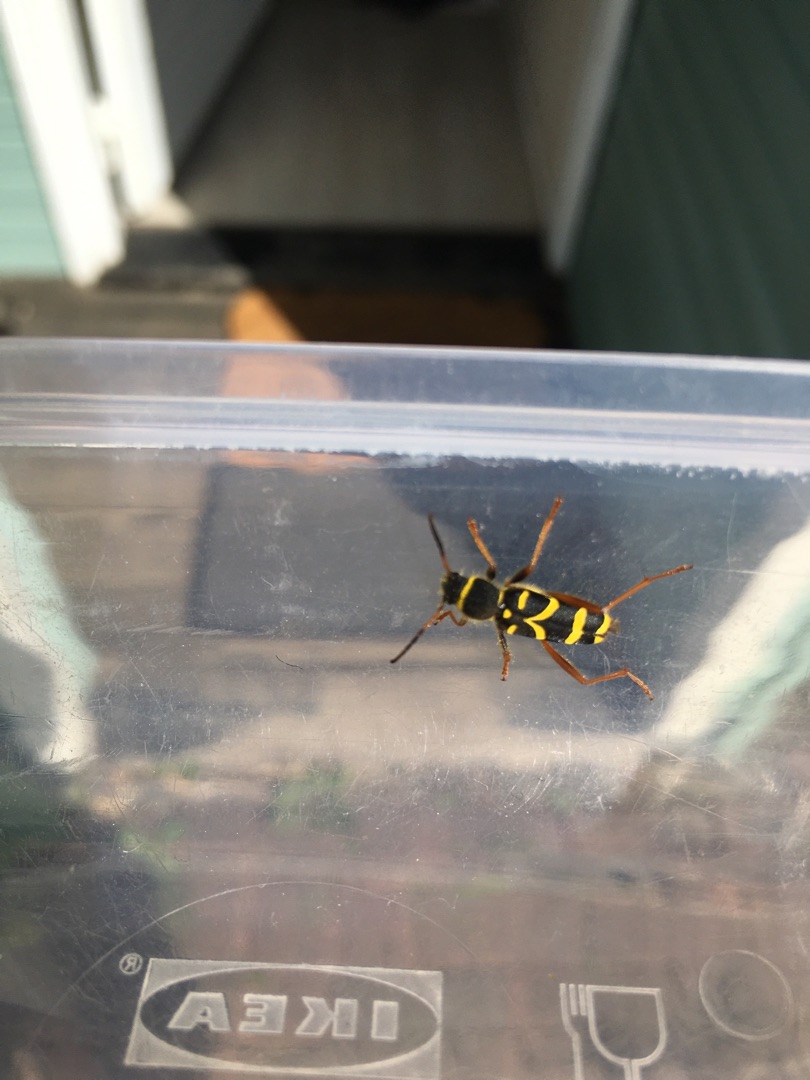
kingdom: Animalia
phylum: Arthropoda
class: Insecta
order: Coleoptera
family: Cerambycidae
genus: Clytus
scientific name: Clytus arietis
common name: Lille hvepsebuk
